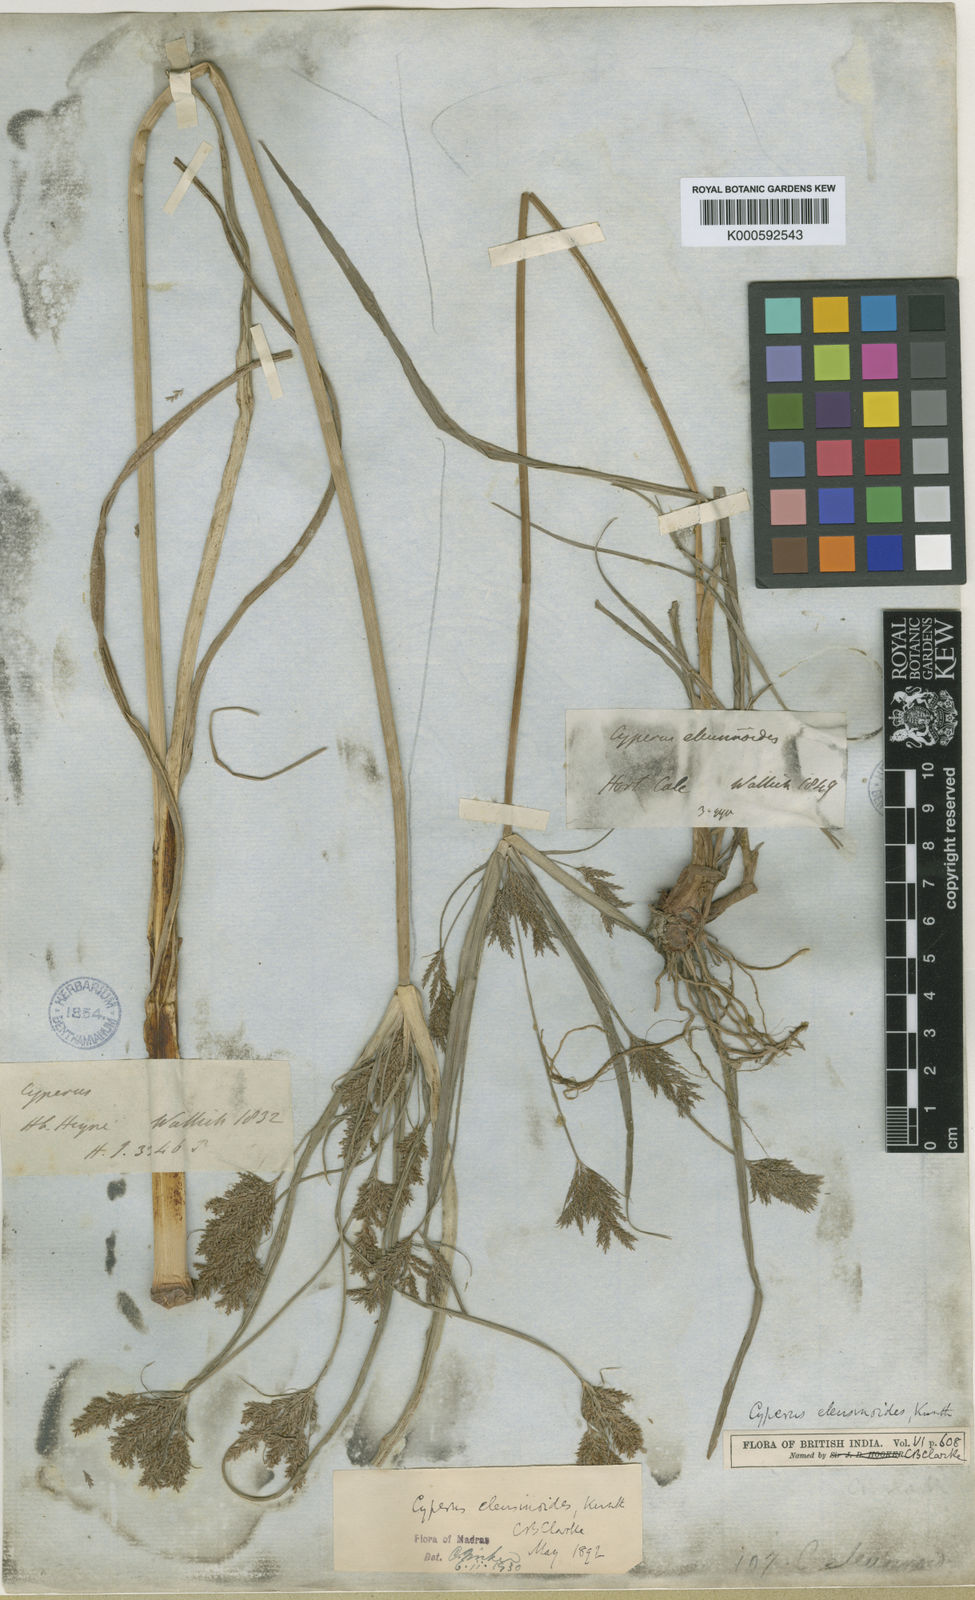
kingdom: Plantae
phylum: Tracheophyta
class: Liliopsida
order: Poales
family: Cyperaceae
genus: Cyperus
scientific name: Cyperus nutans
